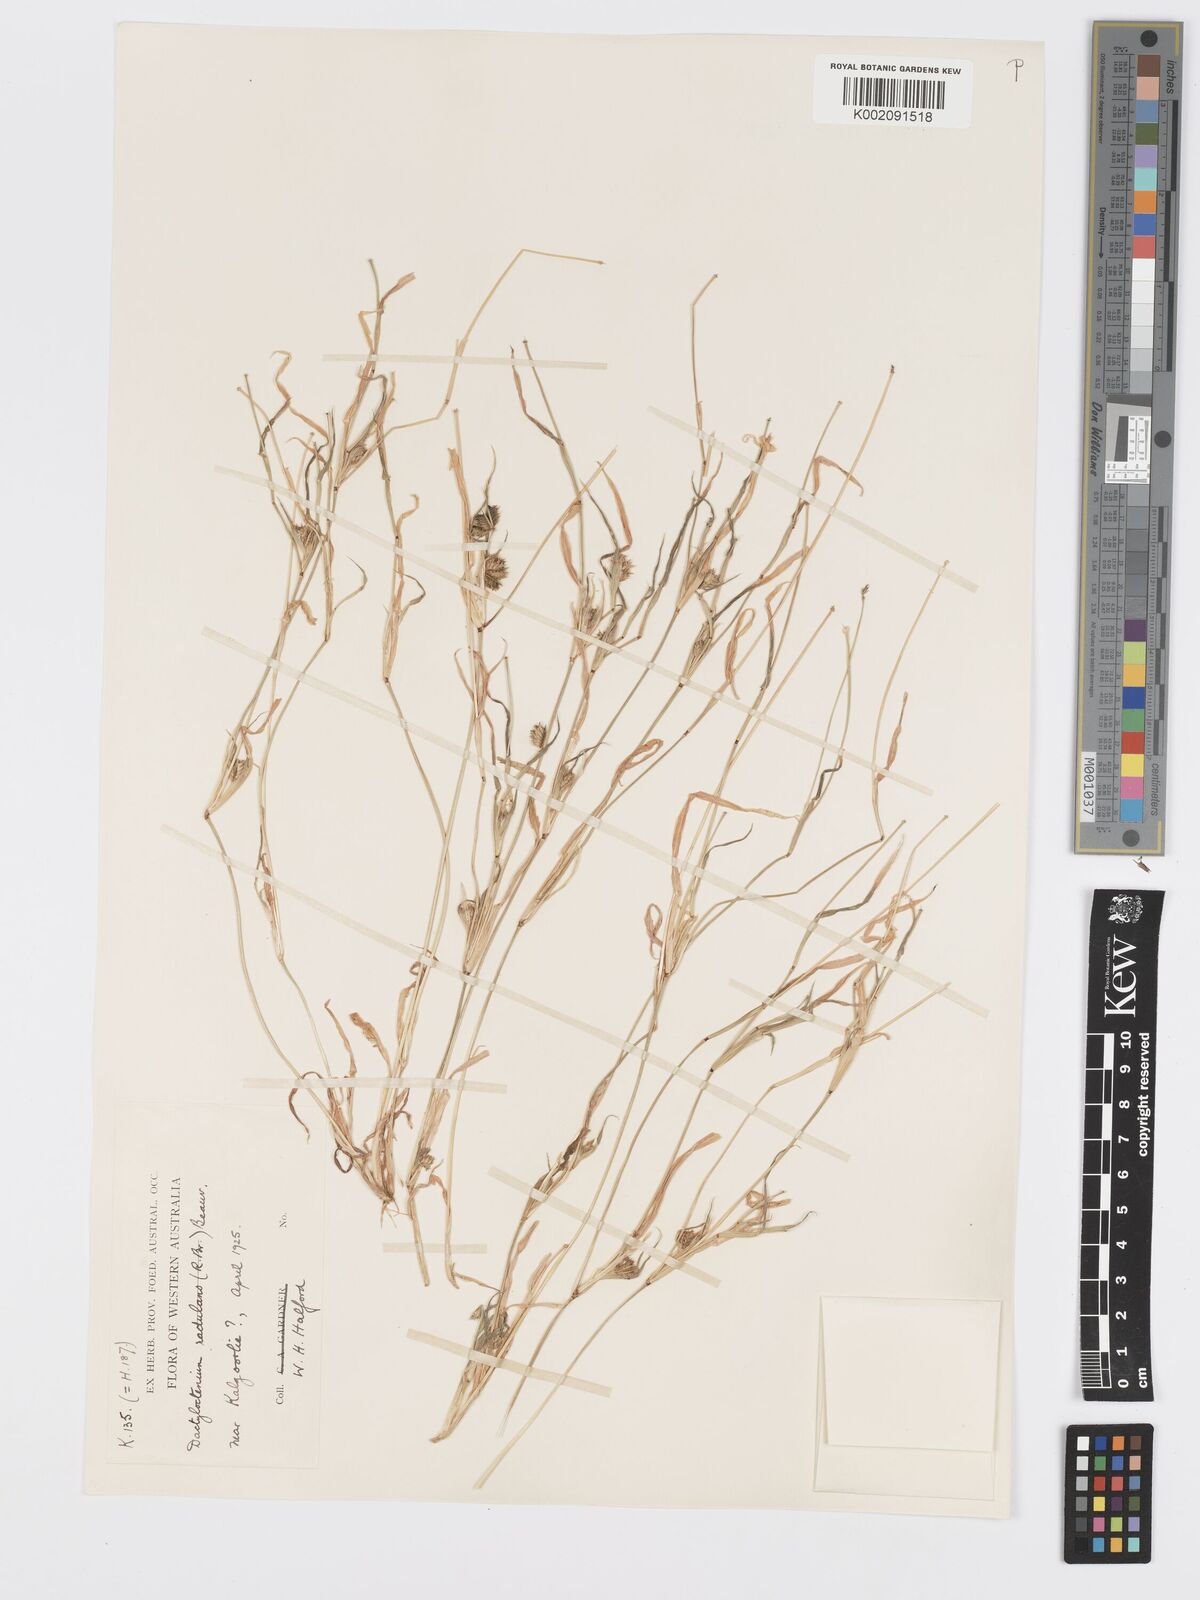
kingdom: Plantae
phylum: Tracheophyta
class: Liliopsida
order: Poales
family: Poaceae
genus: Dactyloctenium
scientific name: Dactyloctenium radulans
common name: Button-grass
